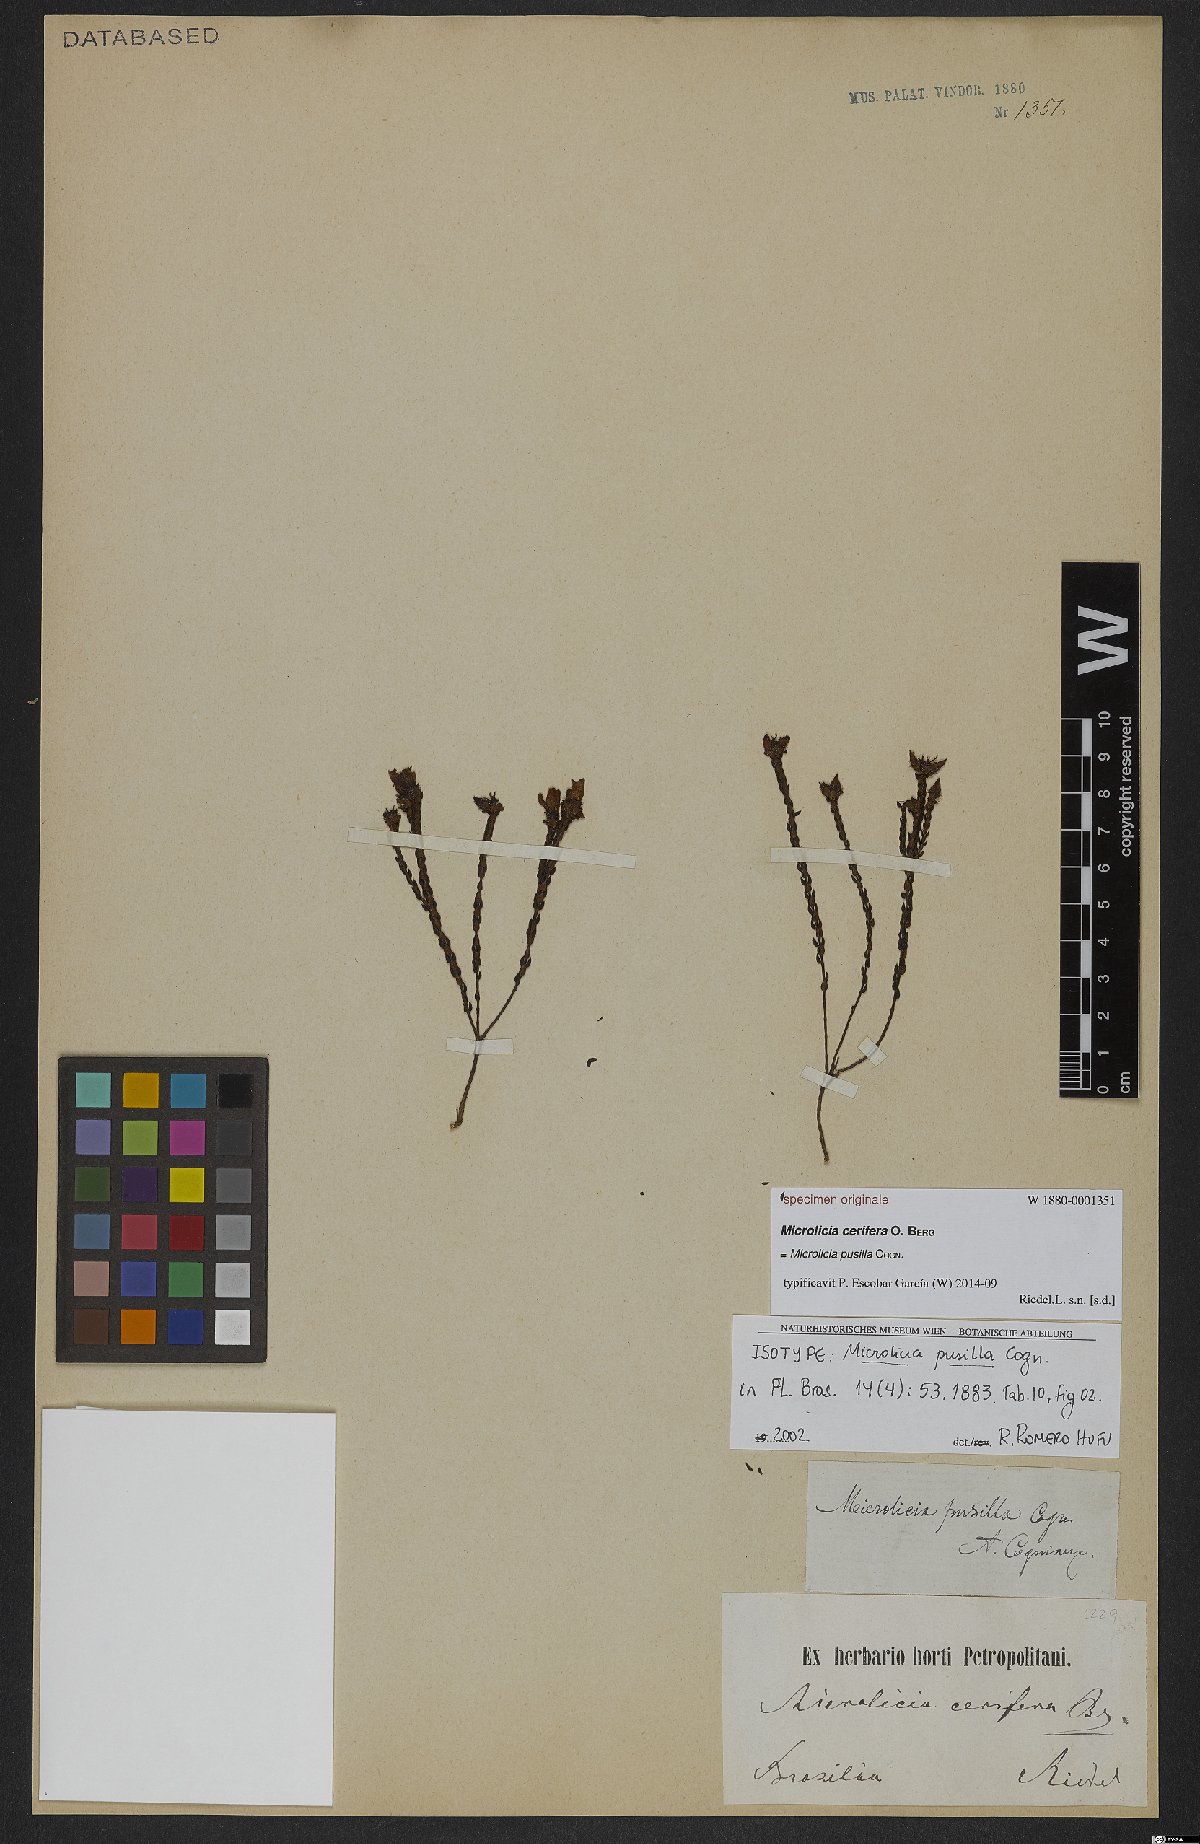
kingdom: Plantae
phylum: Tracheophyta
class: Magnoliopsida
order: Myrtales
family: Melastomataceae
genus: Microlicia
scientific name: Microlicia pusilla
